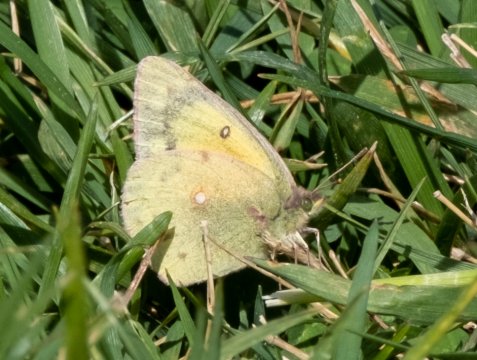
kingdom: Animalia
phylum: Arthropoda
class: Insecta
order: Lepidoptera
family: Pieridae
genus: Colias
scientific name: Colias eurytheme
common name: Orange Sulphur
